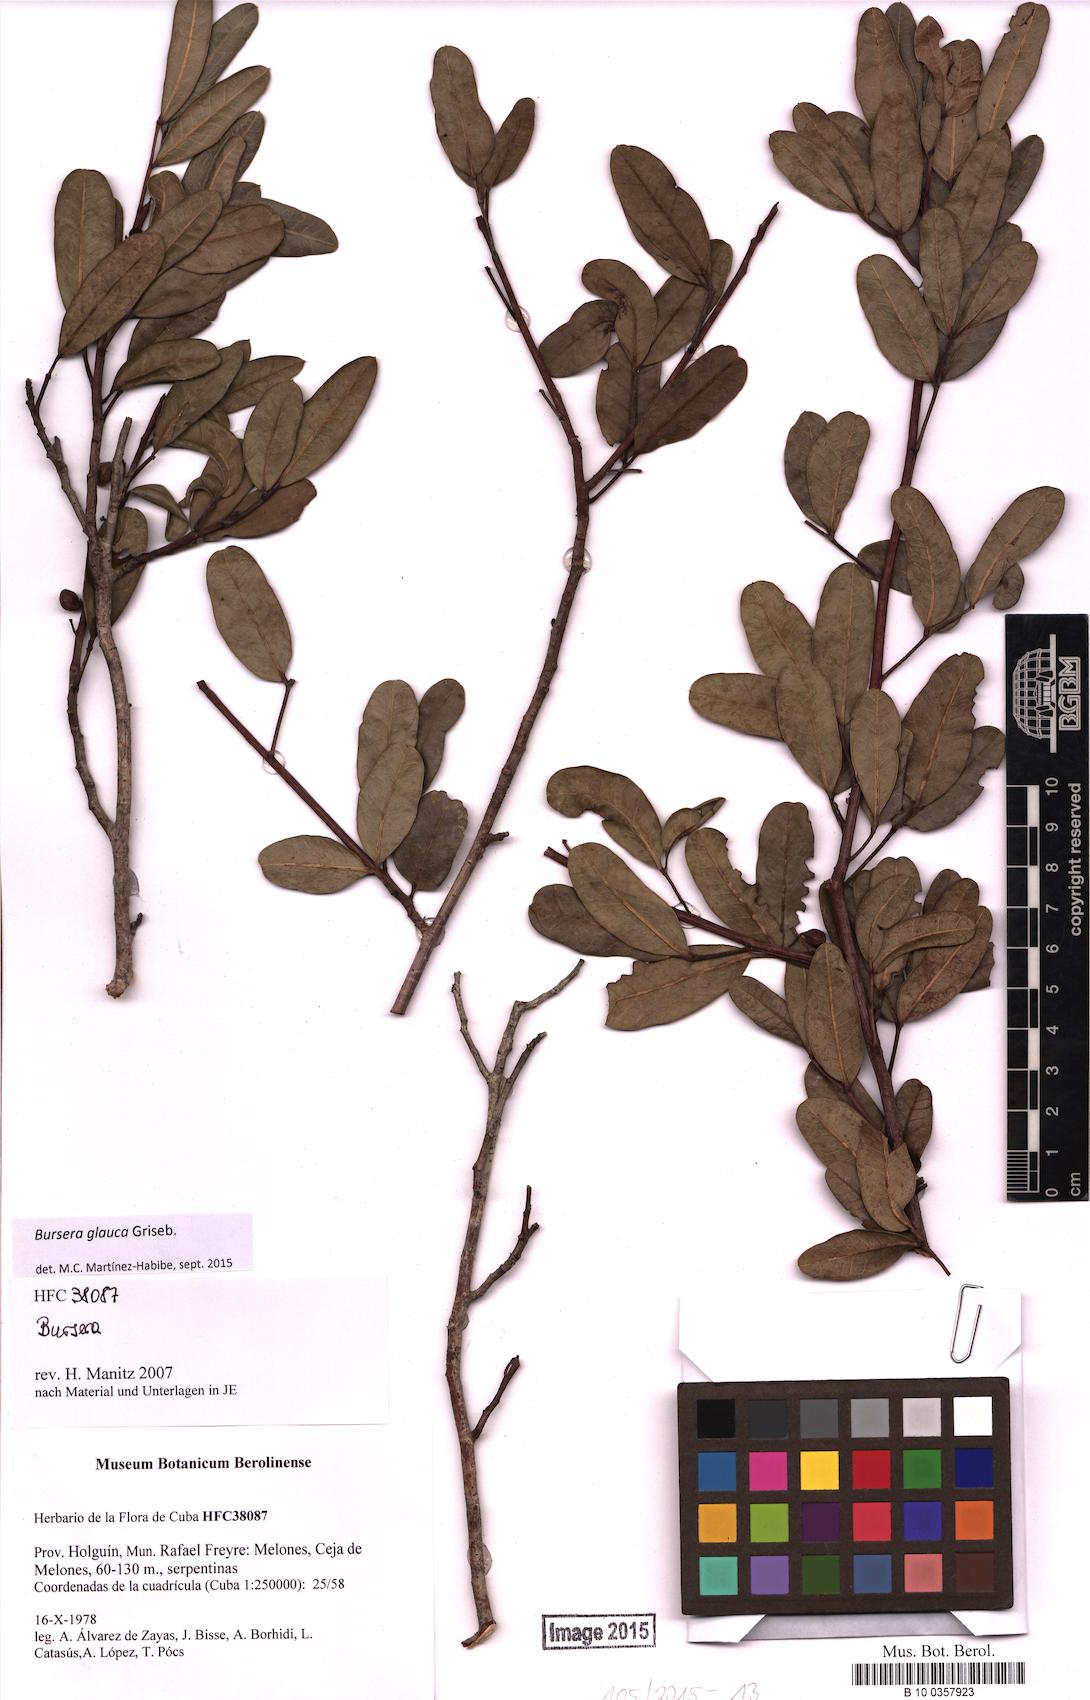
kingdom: Plantae
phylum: Tracheophyta
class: Magnoliopsida
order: Sapindales
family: Burseraceae
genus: Bursera
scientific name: Bursera glauca
